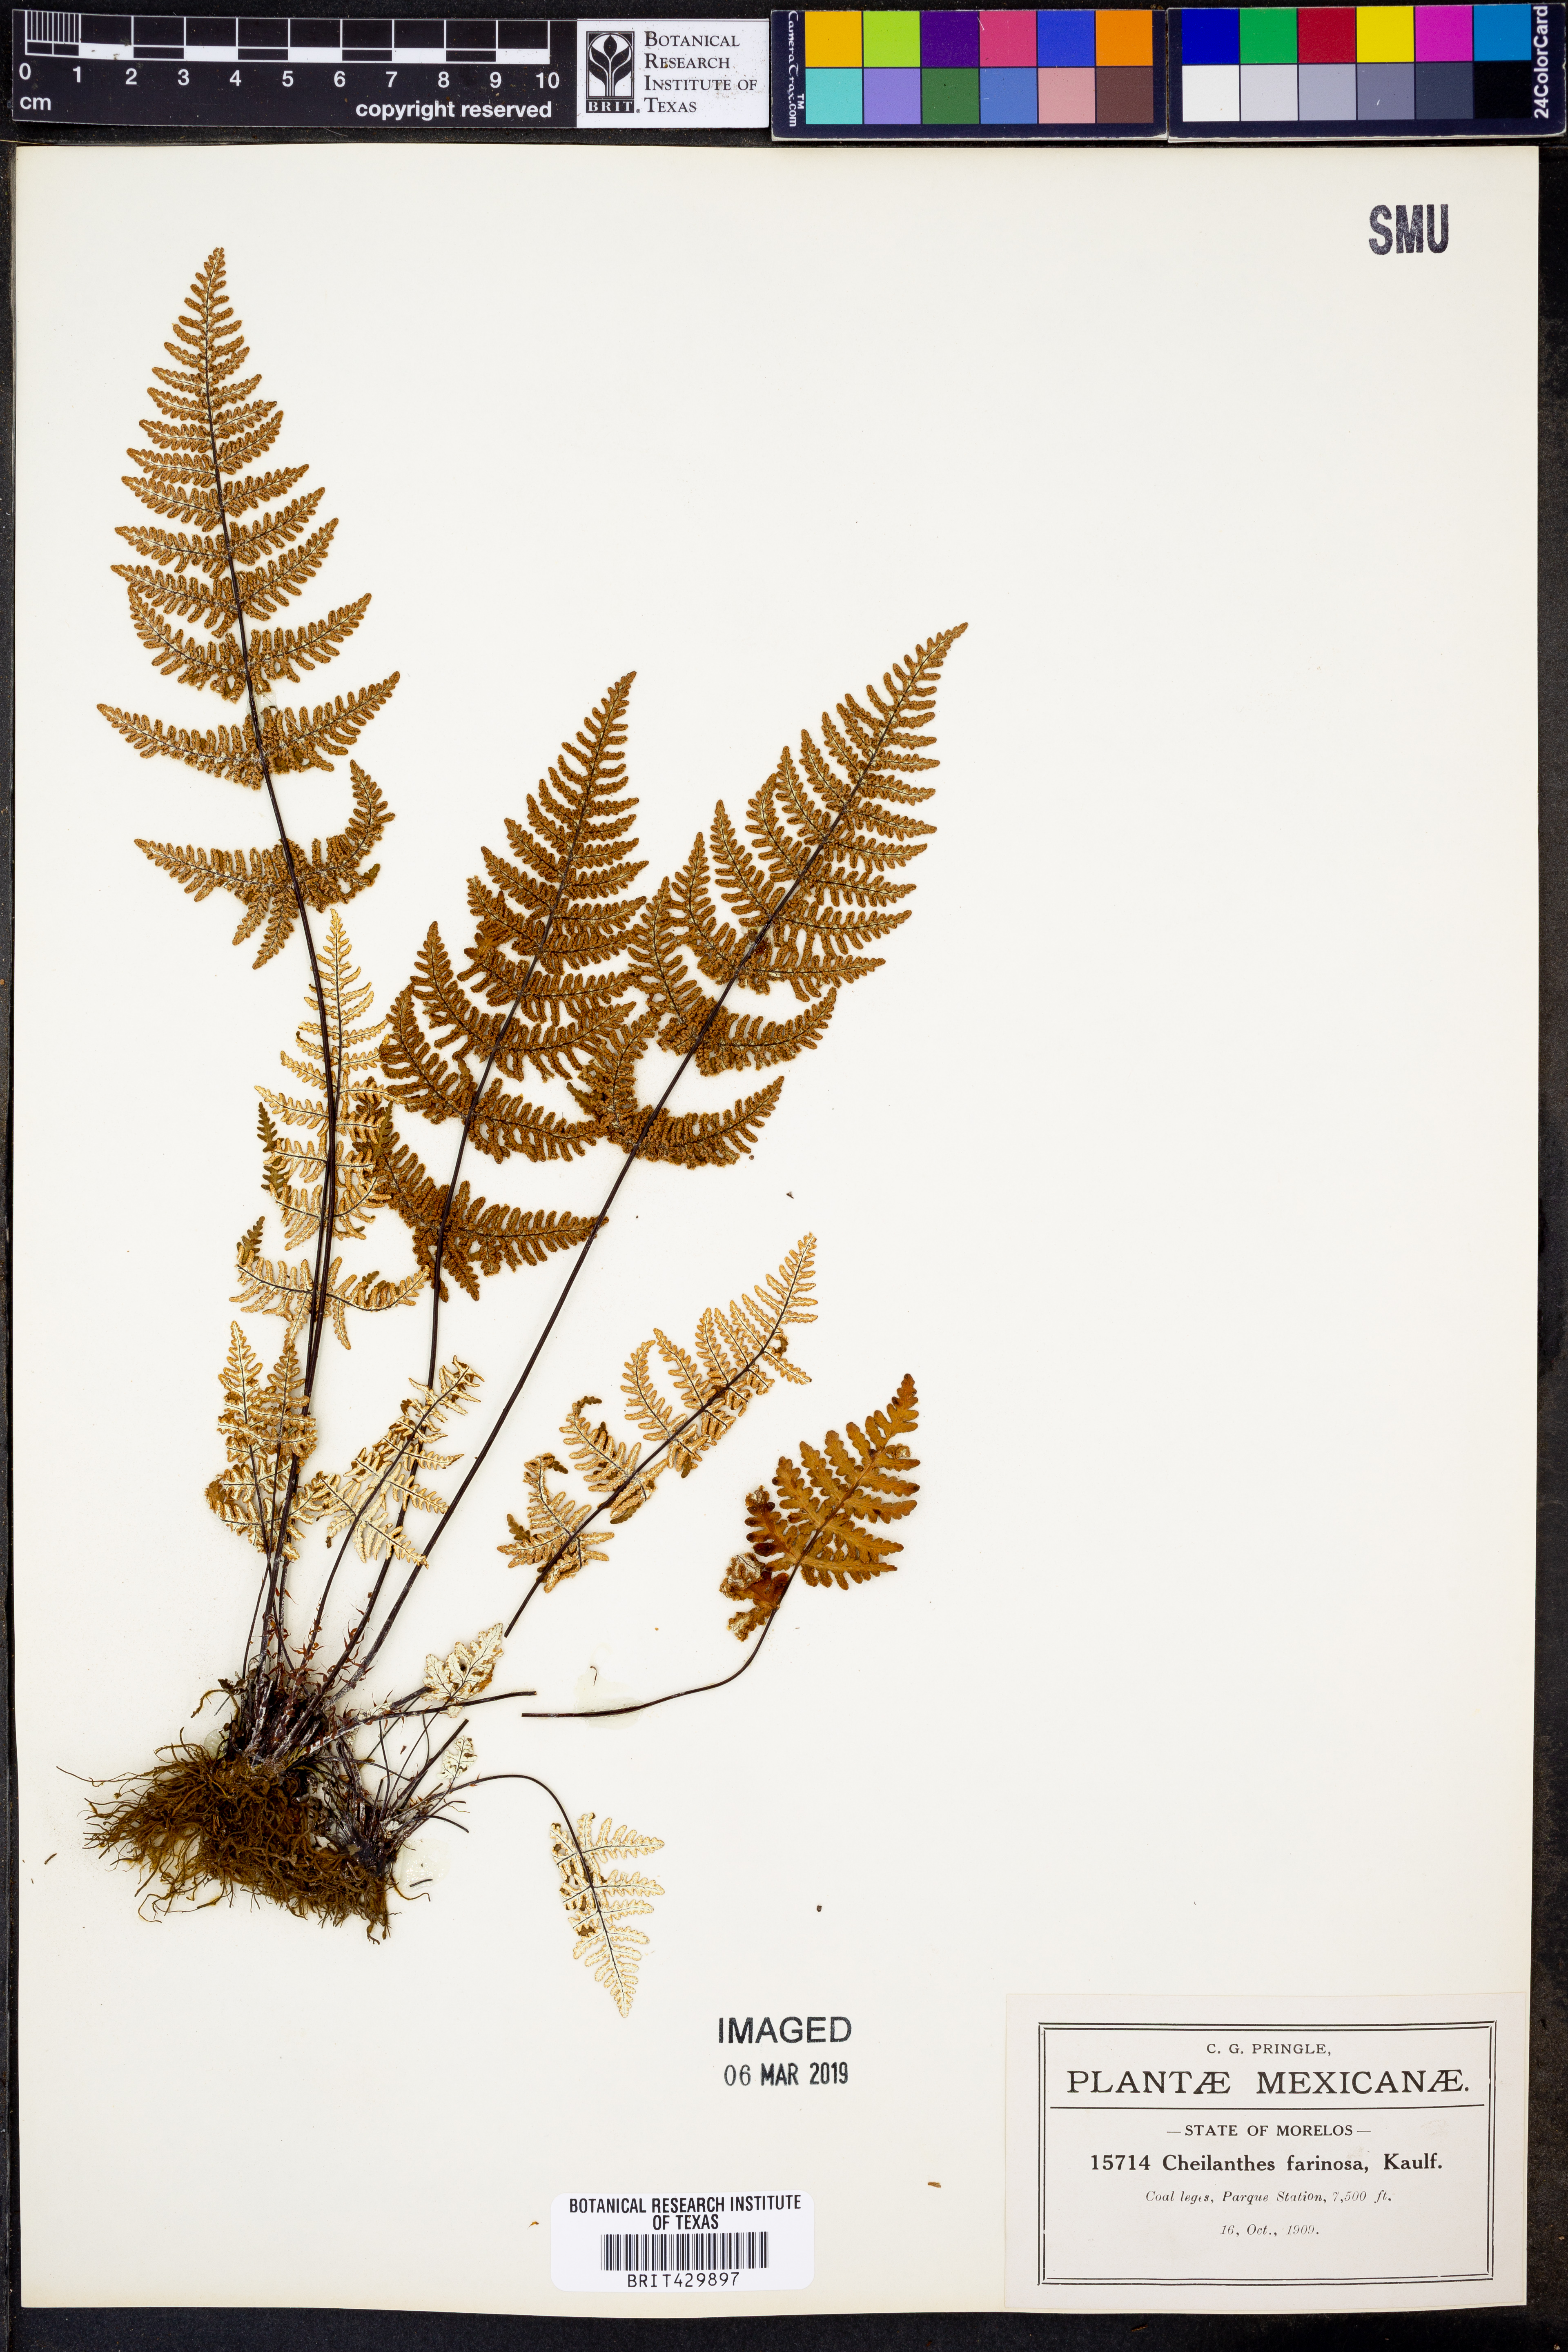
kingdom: Plantae
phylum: Tracheophyta
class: Polypodiopsida
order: Polypodiales
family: Pteridaceae
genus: Aleuritopteris
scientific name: Aleuritopteris farinosa
